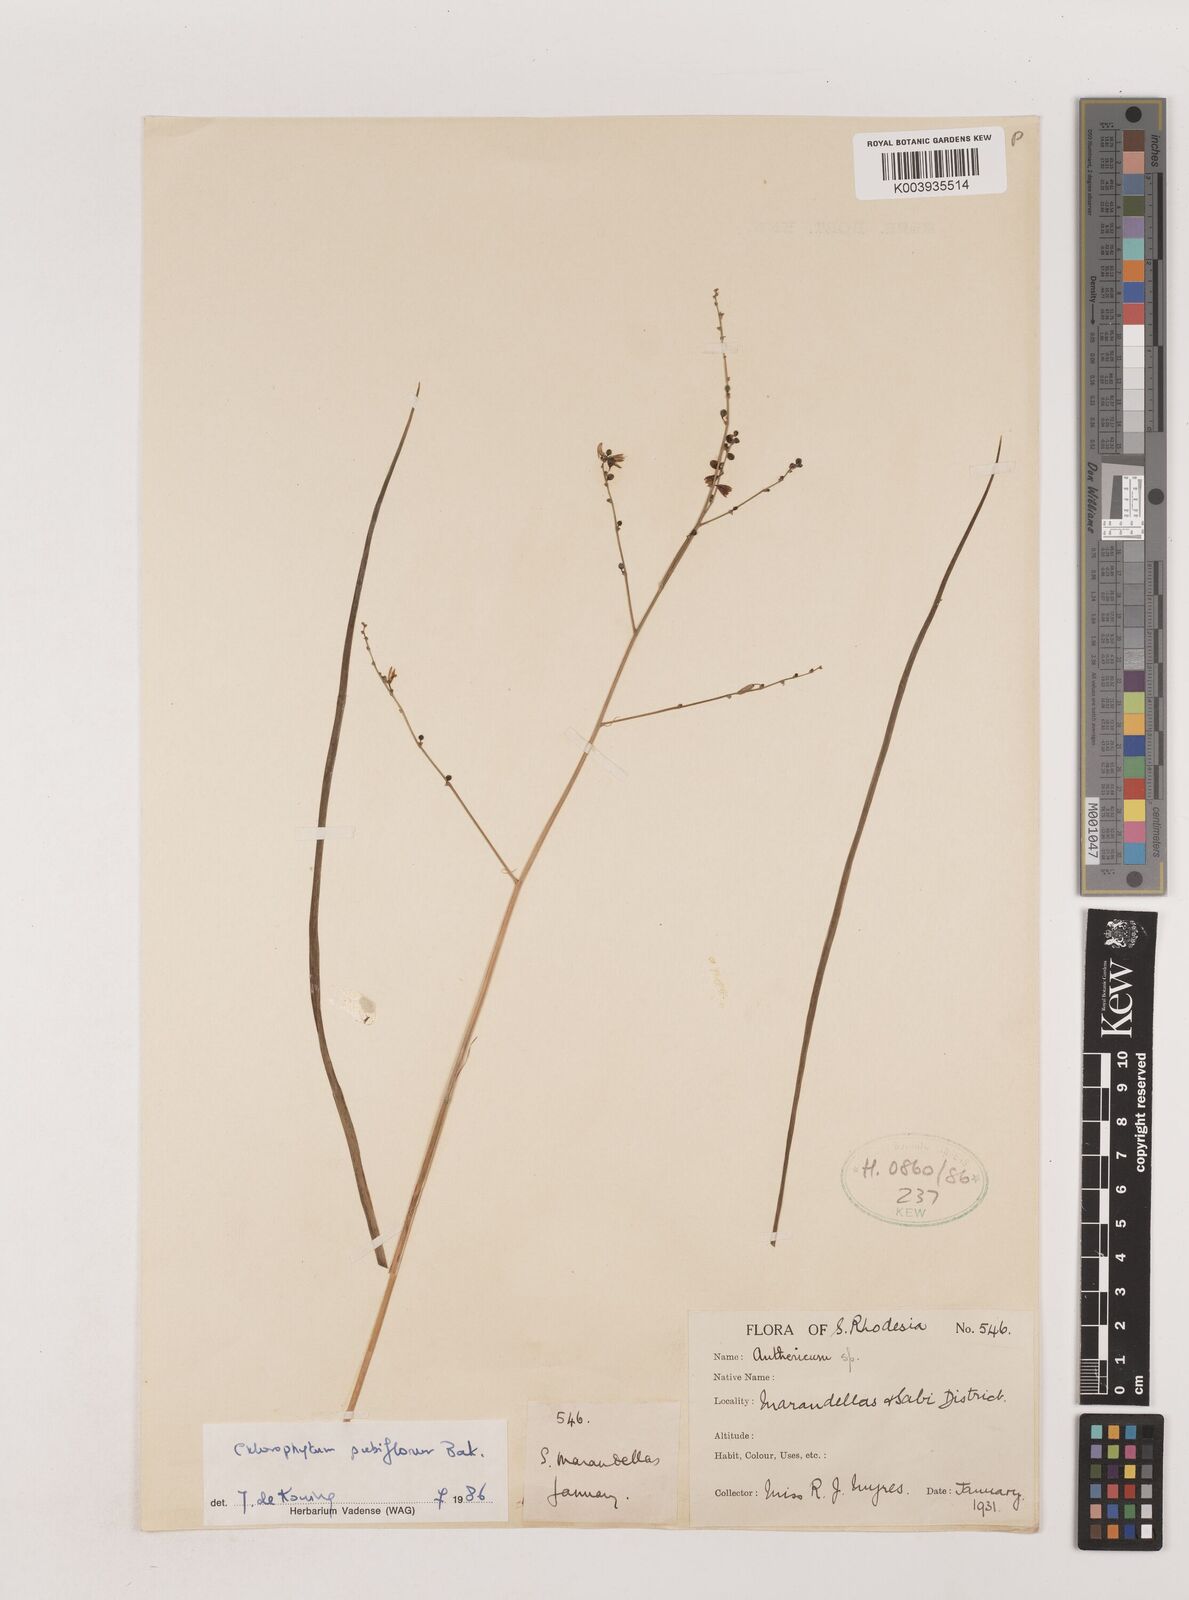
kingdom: Plantae
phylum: Tracheophyta
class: Liliopsida
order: Asparagales
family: Asparagaceae
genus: Chlorophytum
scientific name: Chlorophytum pubiflorum
